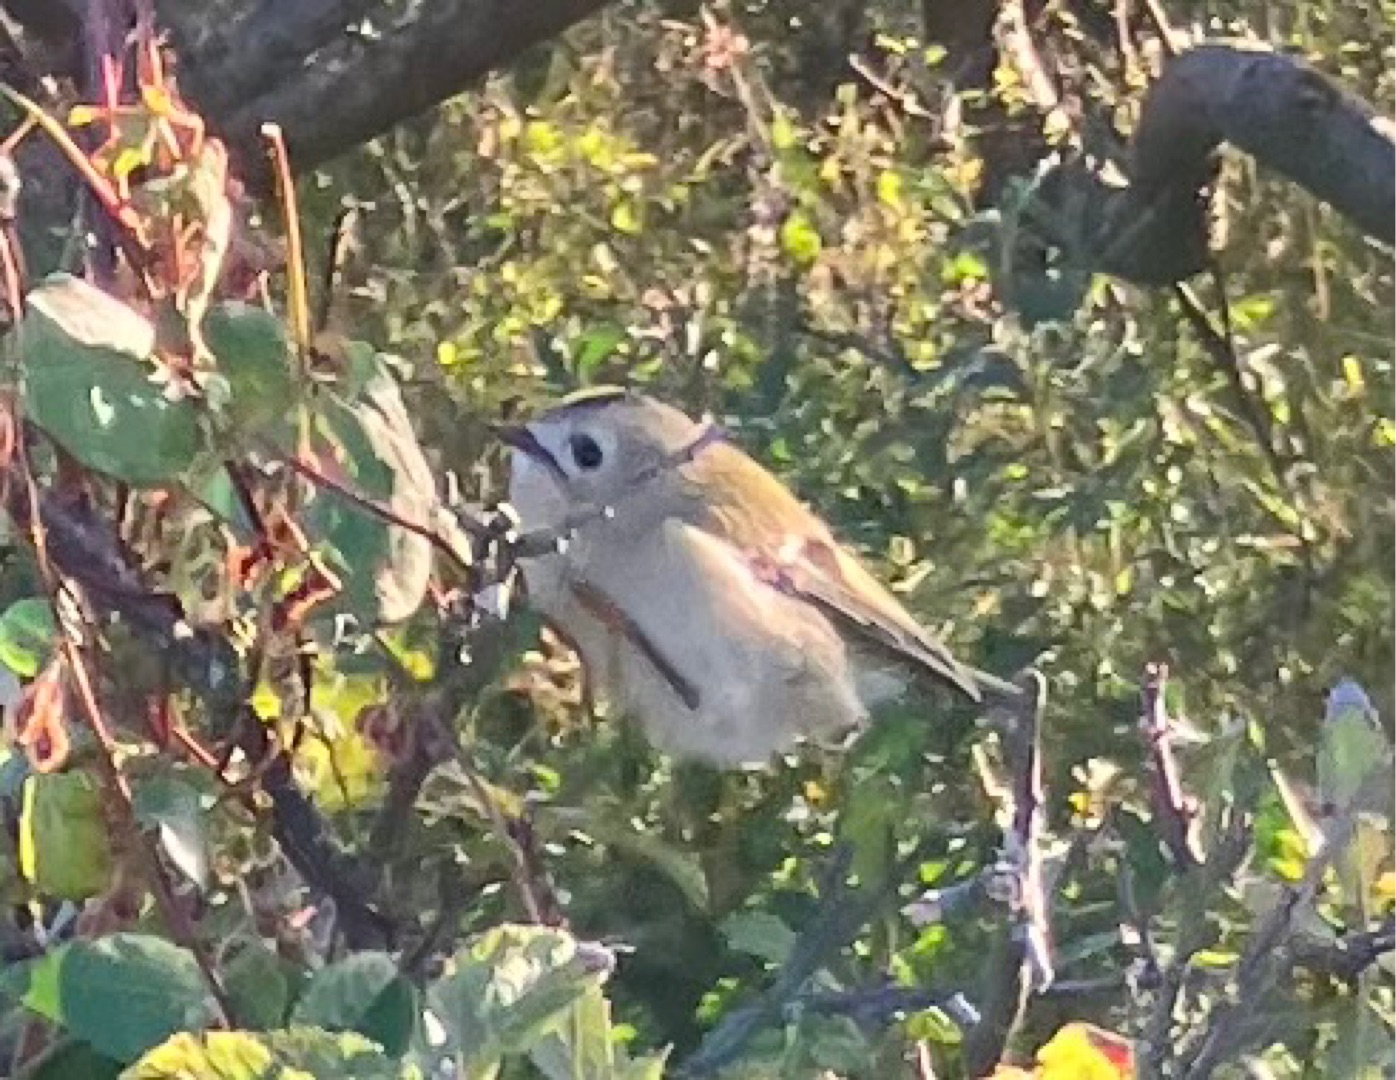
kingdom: Animalia
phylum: Chordata
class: Aves
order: Passeriformes
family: Regulidae
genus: Regulus
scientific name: Regulus regulus
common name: Fuglekonge
